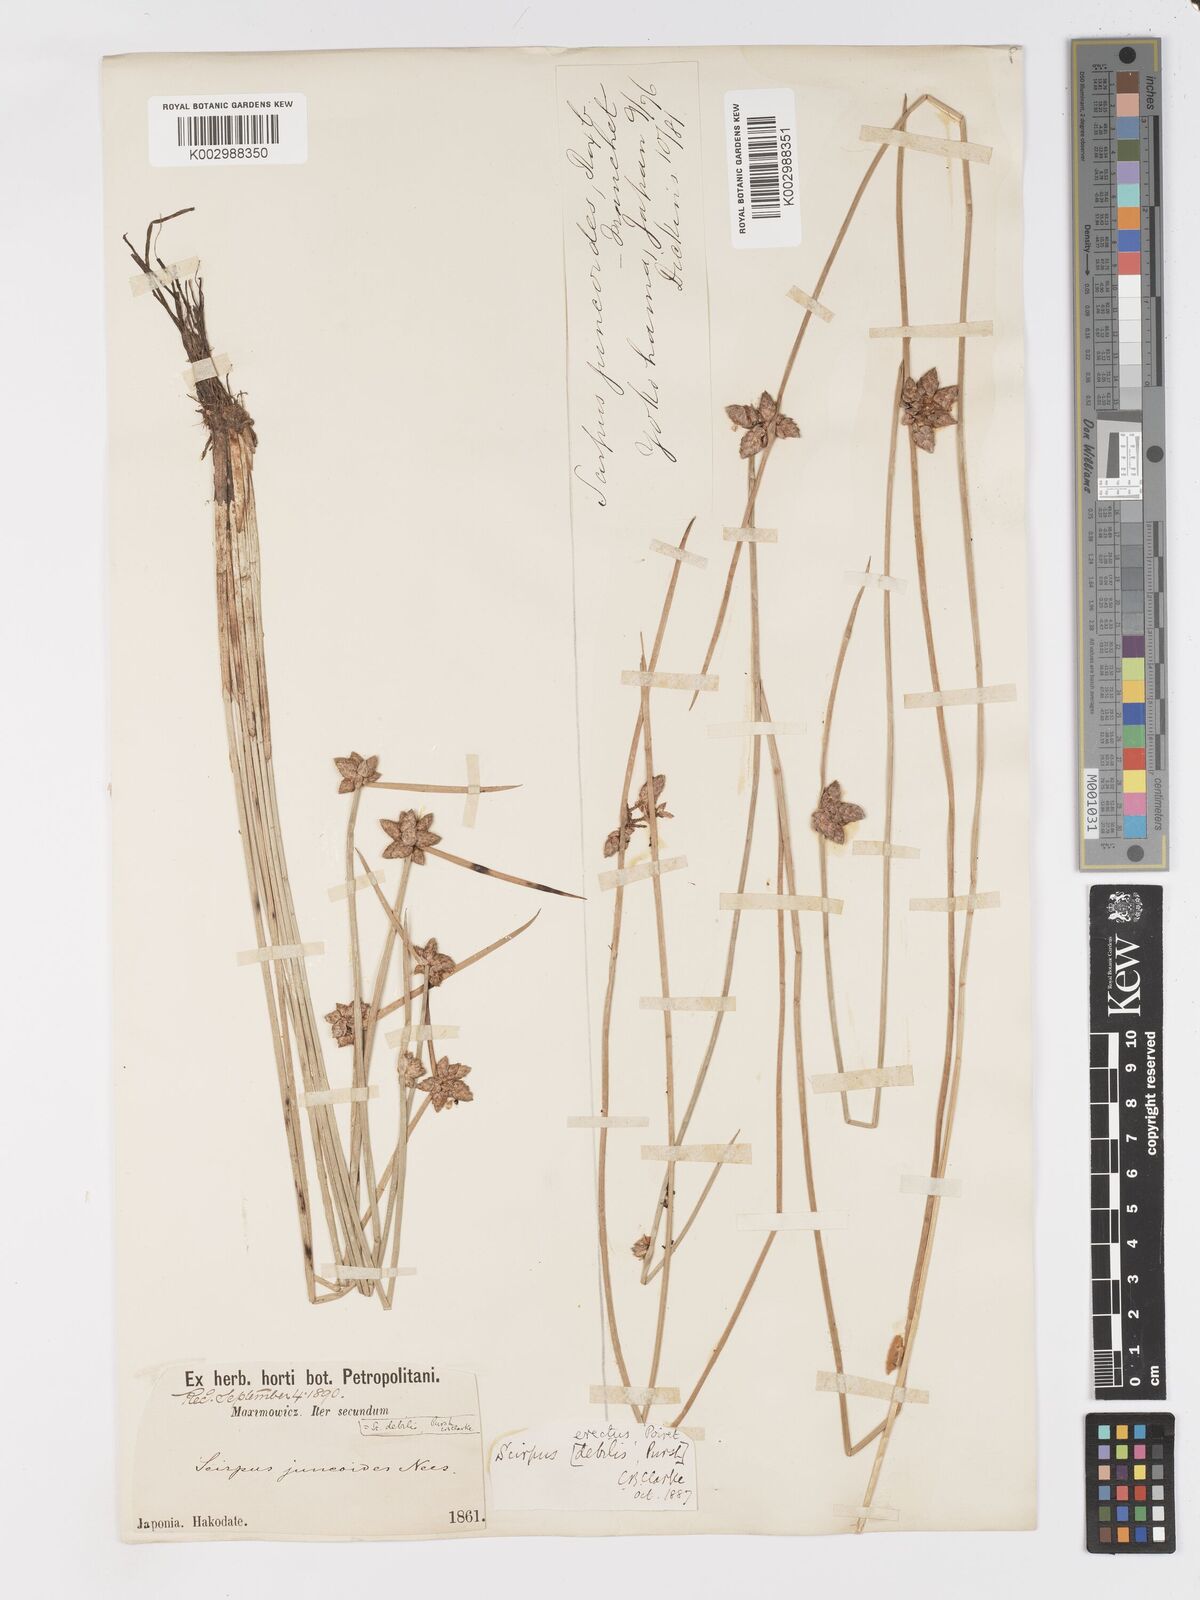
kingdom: Plantae
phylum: Tracheophyta
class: Liliopsida
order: Poales
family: Cyperaceae
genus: Schoenoplectiella
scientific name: Schoenoplectiella juncoides
